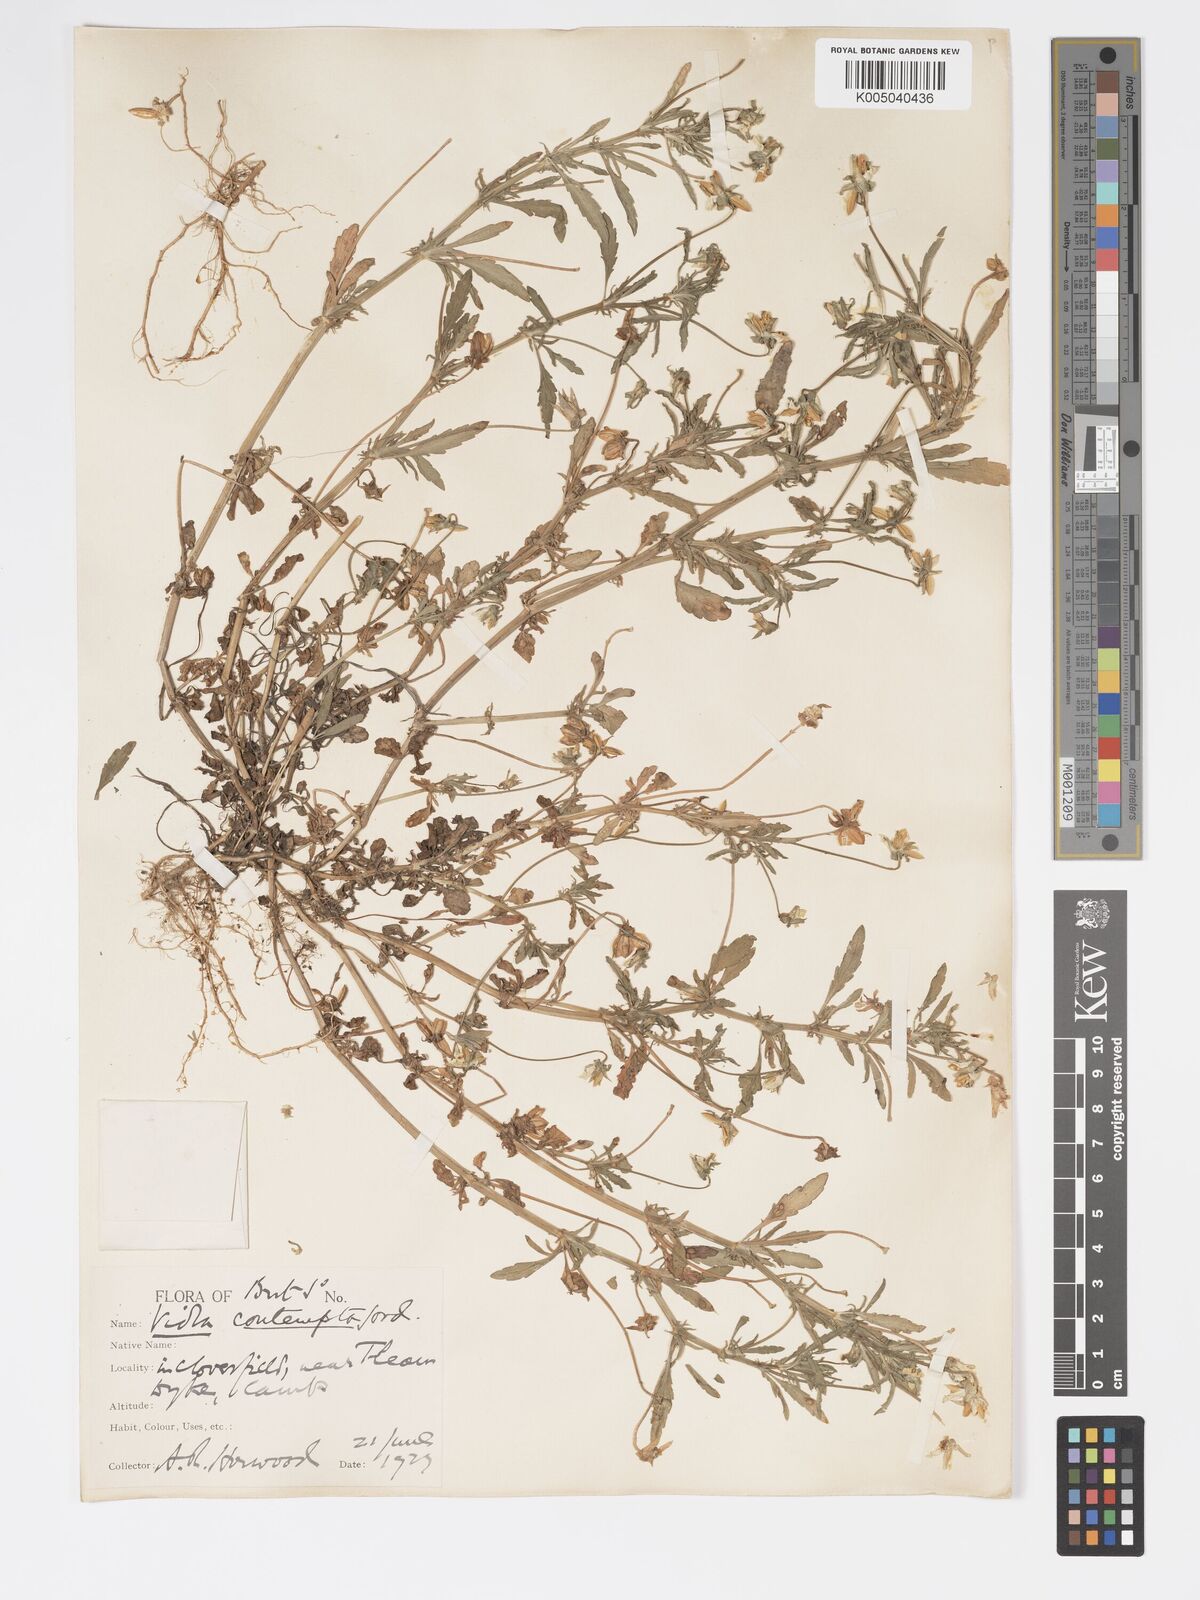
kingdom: Plantae
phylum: Tracheophyta
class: Magnoliopsida
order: Malpighiales
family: Violaceae
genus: Viola
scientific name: Viola arvensis
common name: Field pansy
